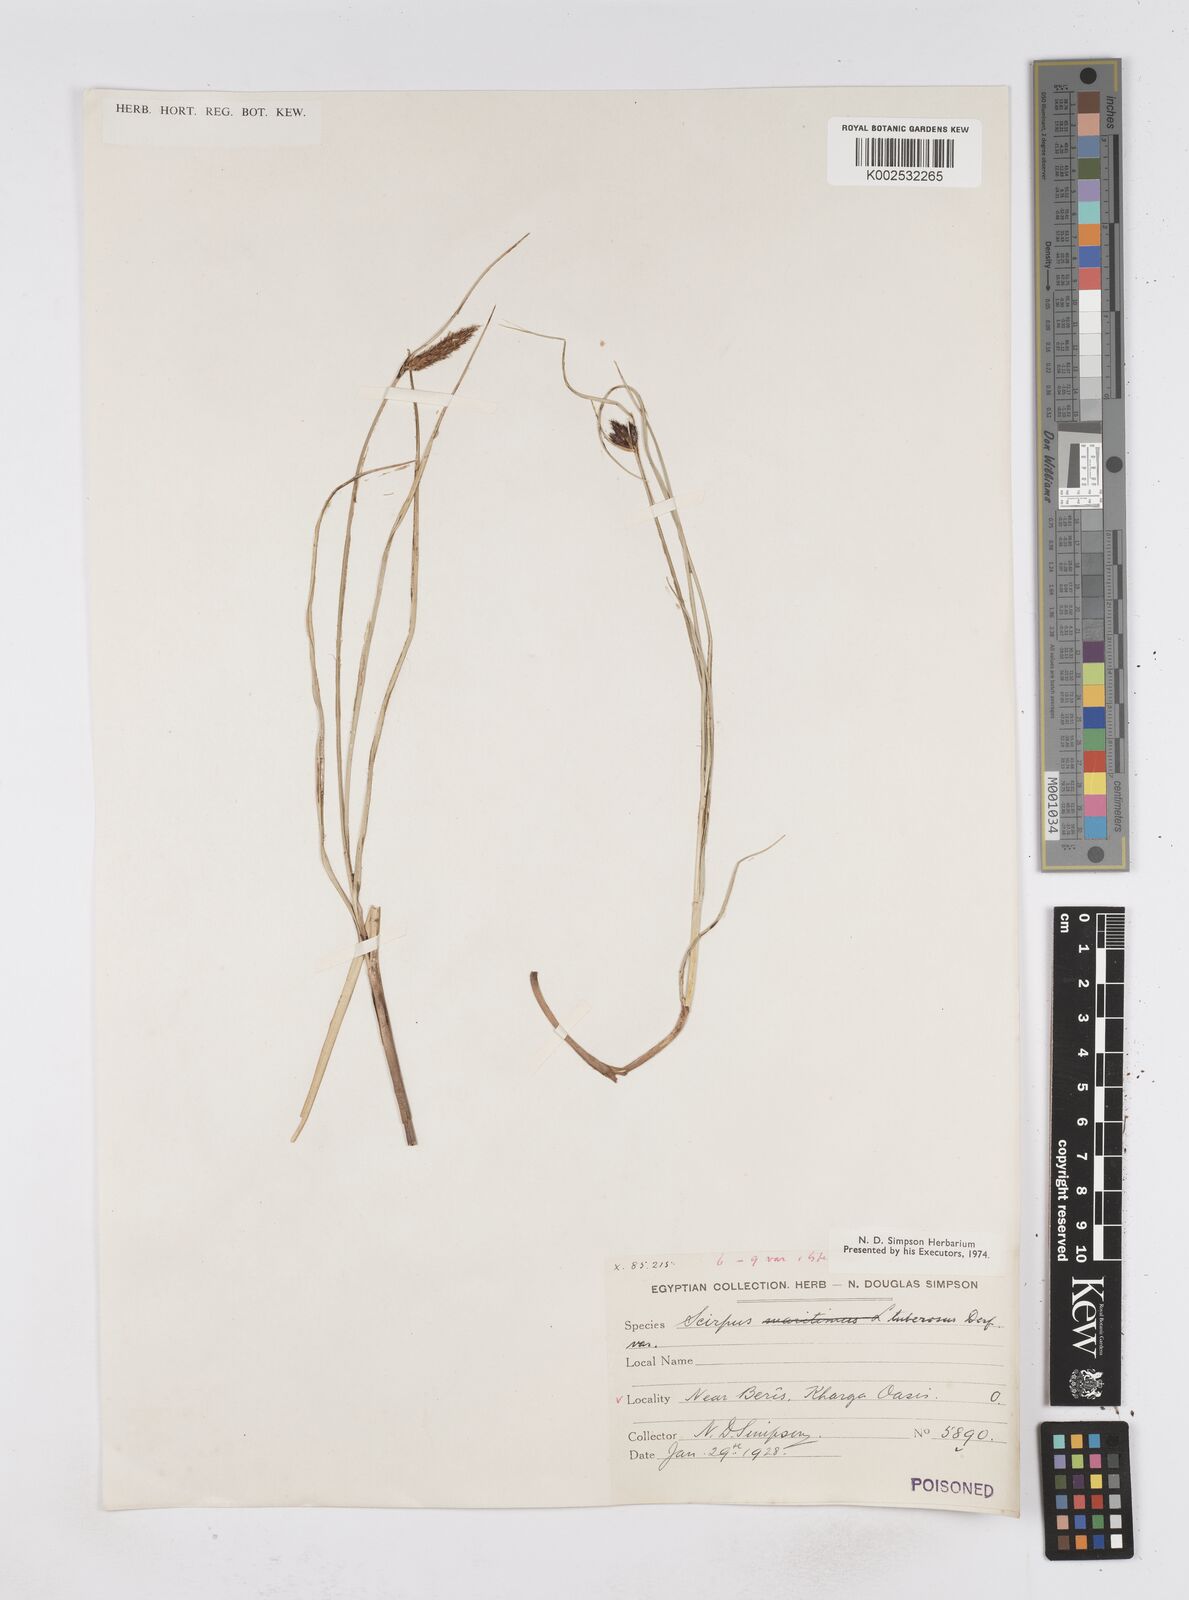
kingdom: Plantae
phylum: Tracheophyta
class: Liliopsida
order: Poales
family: Cyperaceae
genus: Bolboschoenus
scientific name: Bolboschoenus maritimus
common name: Sea club-rush
